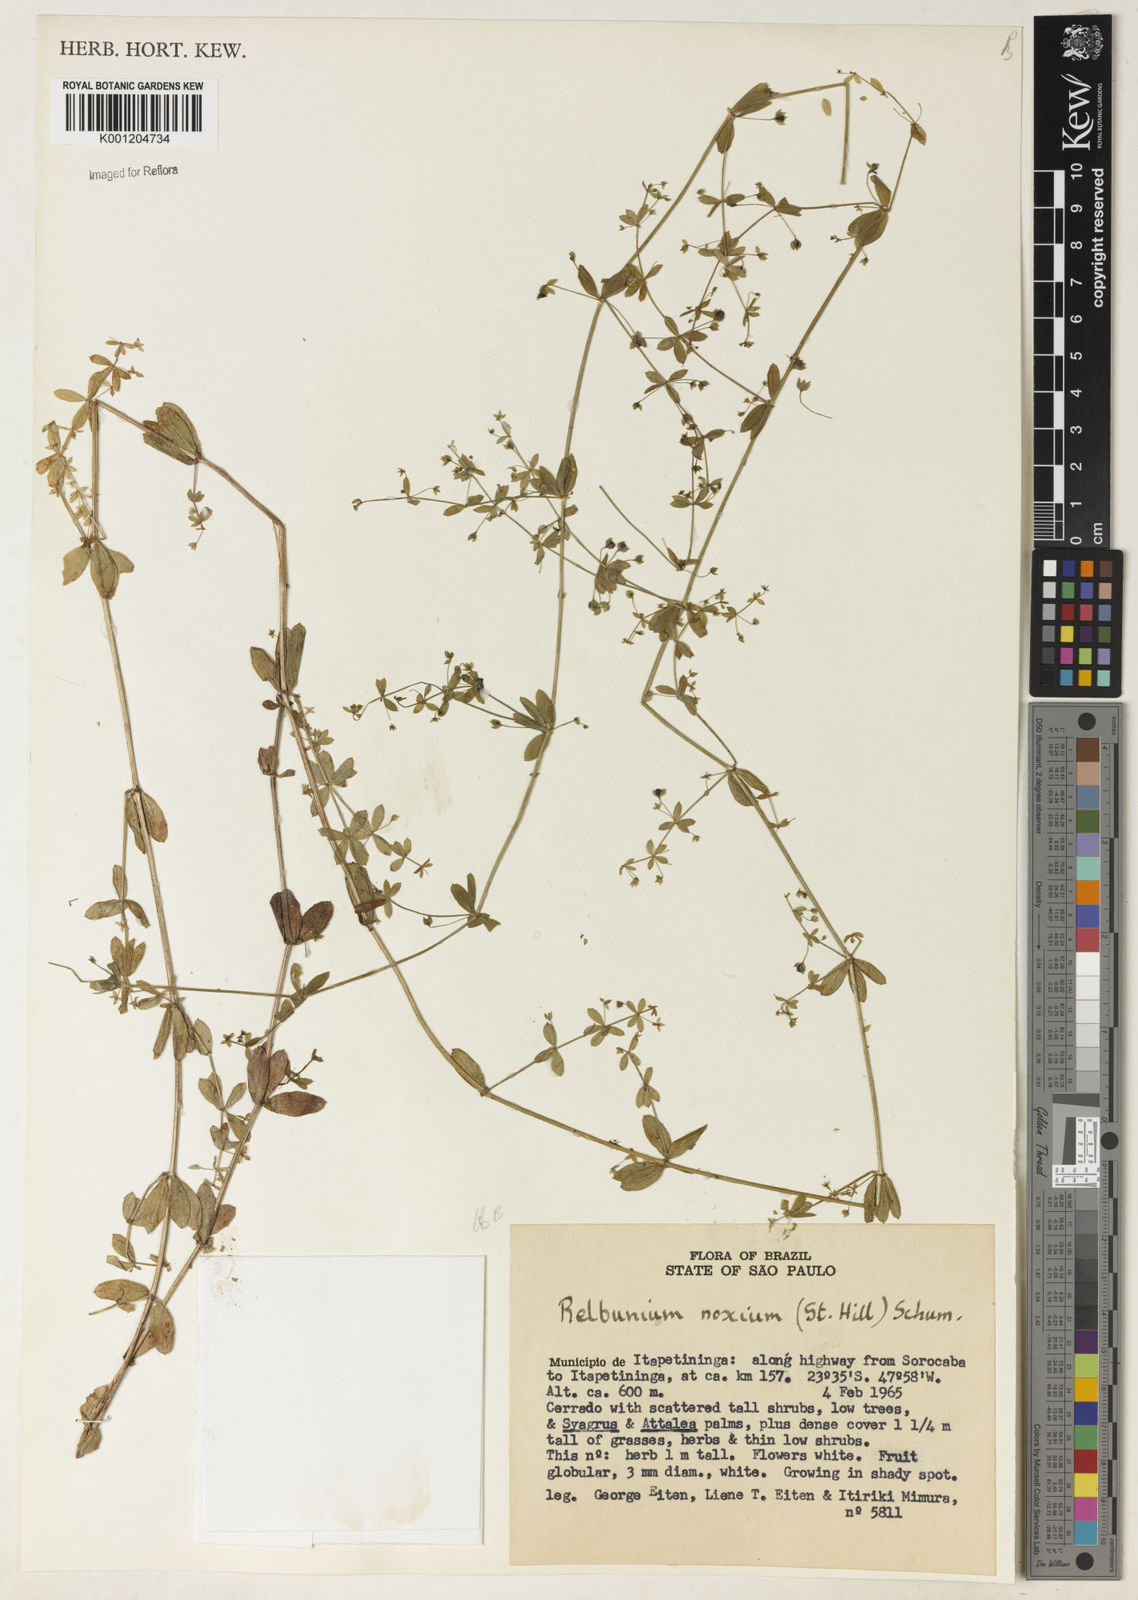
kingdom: Plantae
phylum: Tracheophyta
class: Magnoliopsida
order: Gentianales
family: Rubiaceae
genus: Galium
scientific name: Galium noxium
